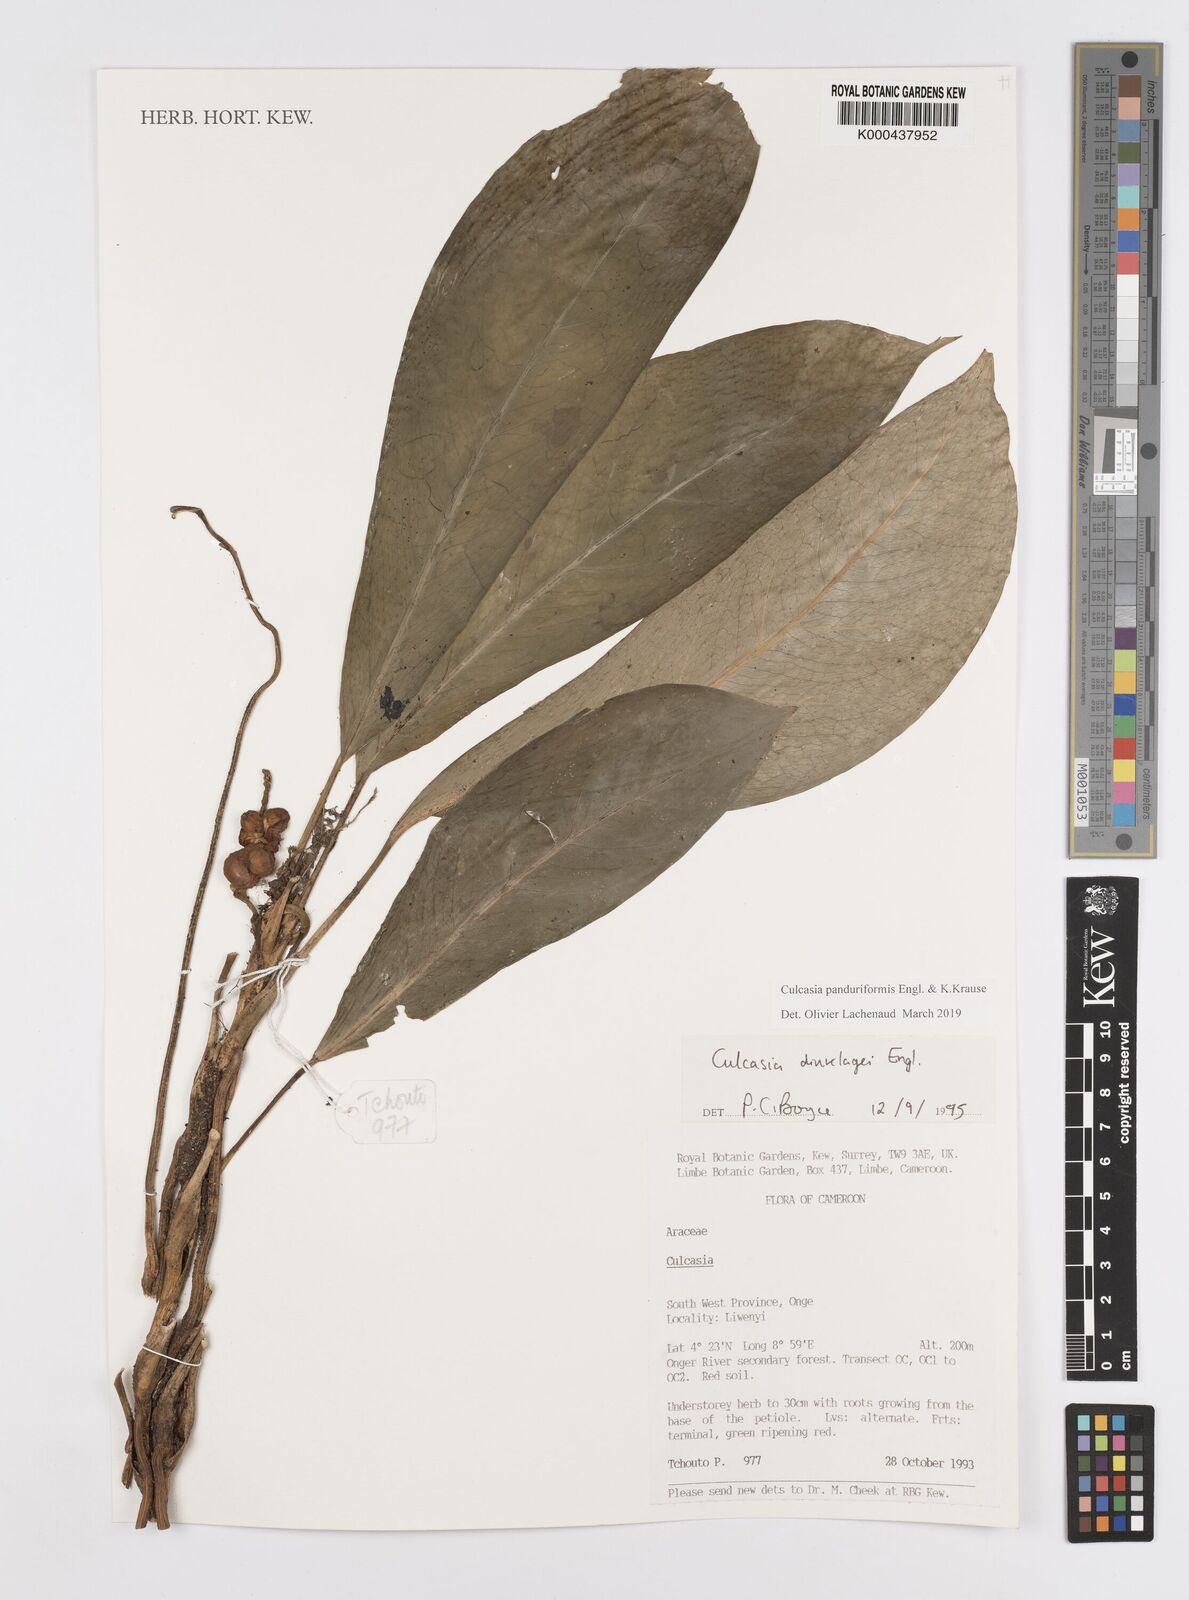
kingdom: Plantae
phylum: Tracheophyta
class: Liliopsida
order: Alismatales
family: Araceae
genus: Culcasia
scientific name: Culcasia panduriformis
